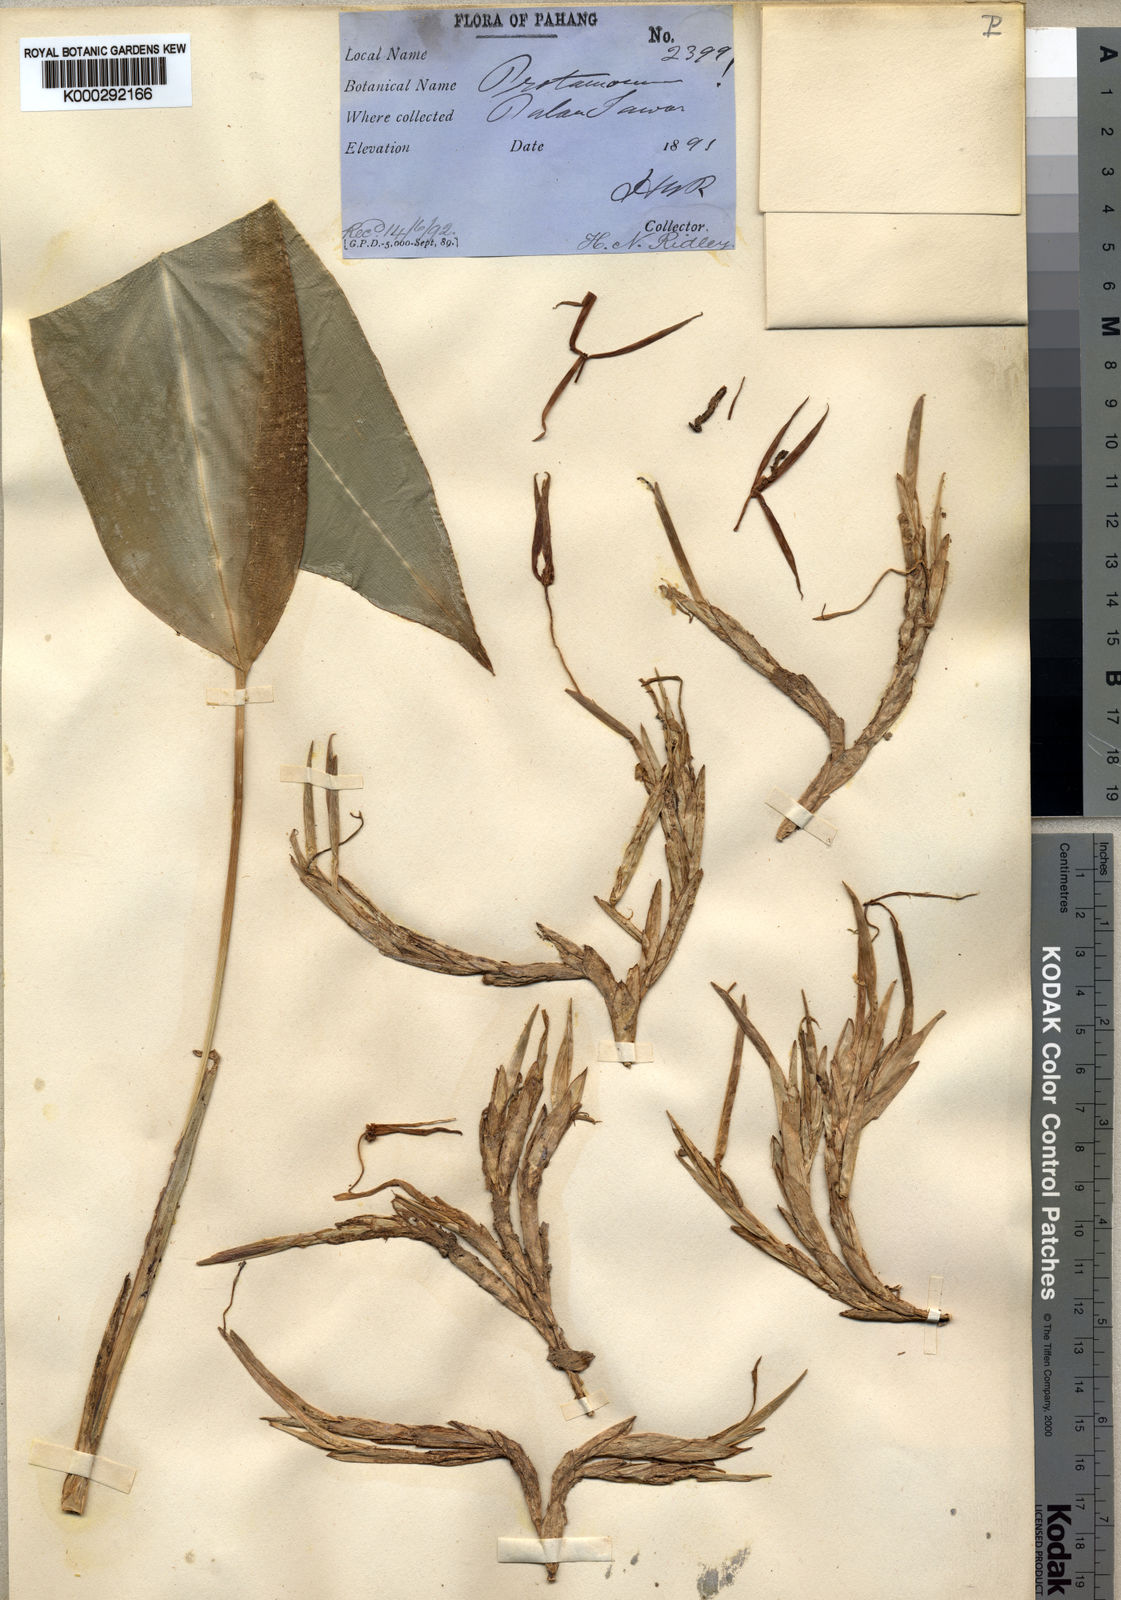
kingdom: Plantae
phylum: Tracheophyta
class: Liliopsida
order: Zingiberales
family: Lowiaceae
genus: Orchidantha
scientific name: Orchidantha maxillarioides
